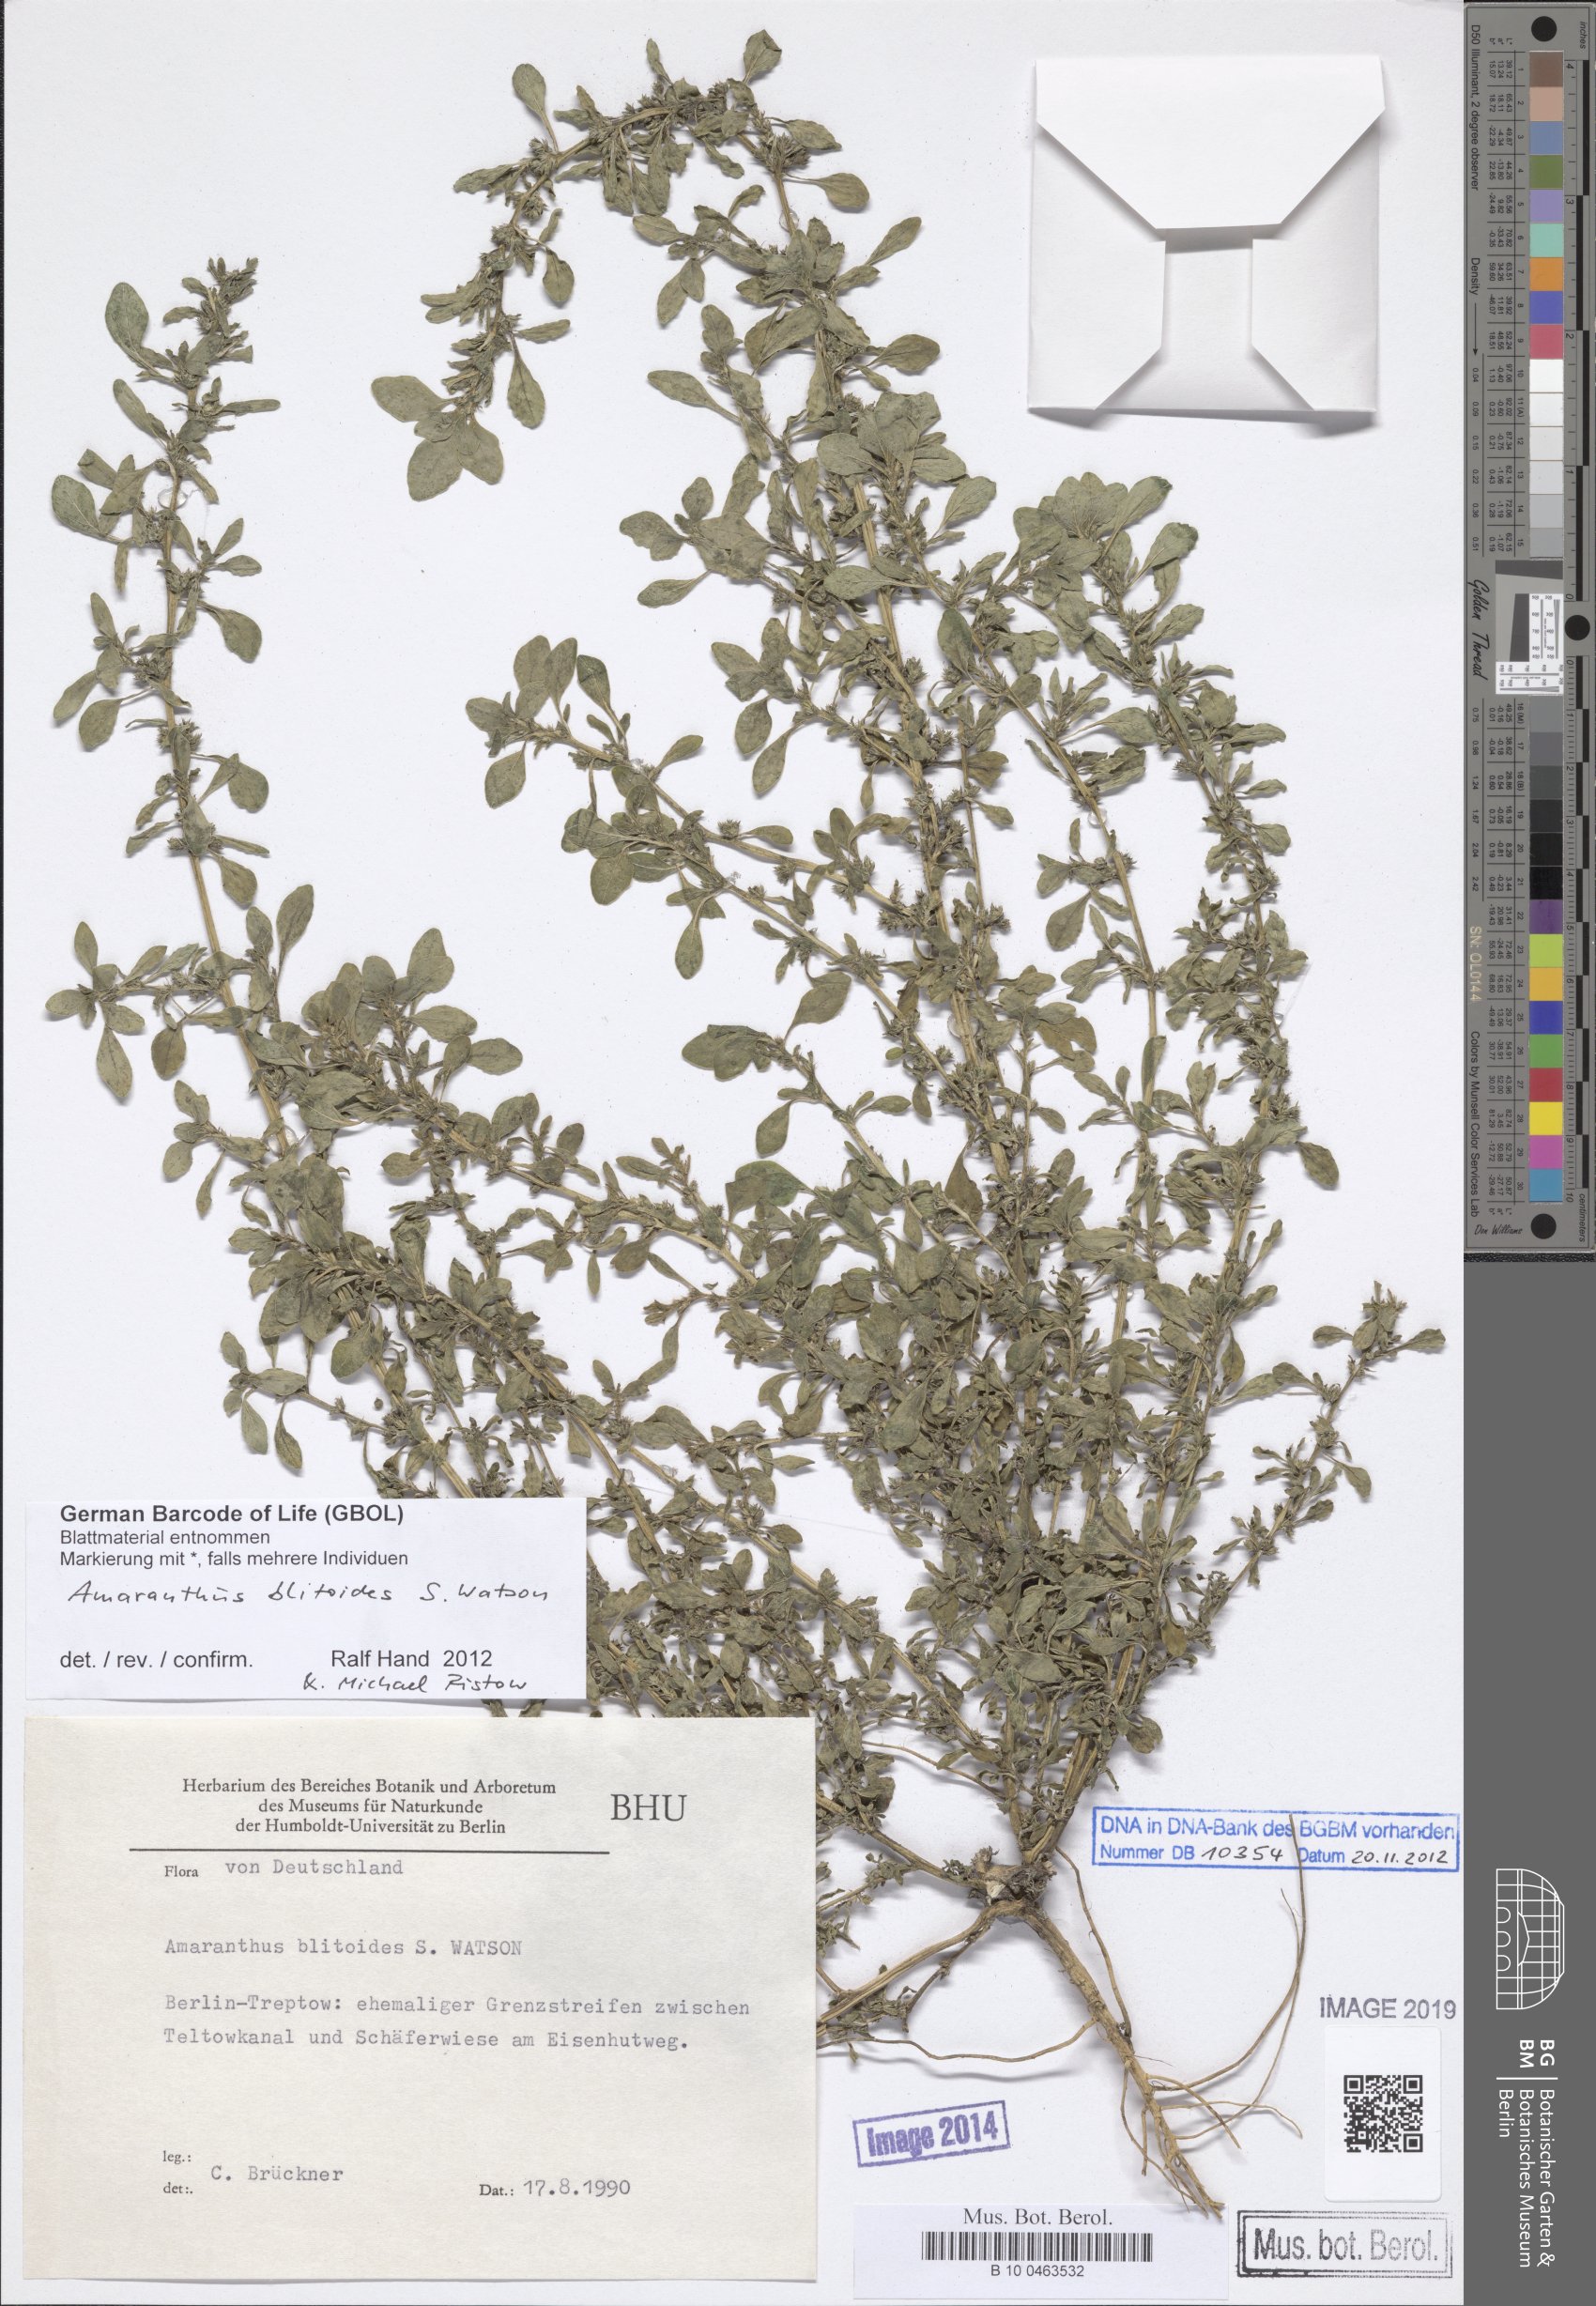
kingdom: Plantae
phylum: Tracheophyta
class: Magnoliopsida
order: Caryophyllales
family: Amaranthaceae
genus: Amaranthus
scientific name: Amaranthus blitoides
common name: Prostrate pigweed
